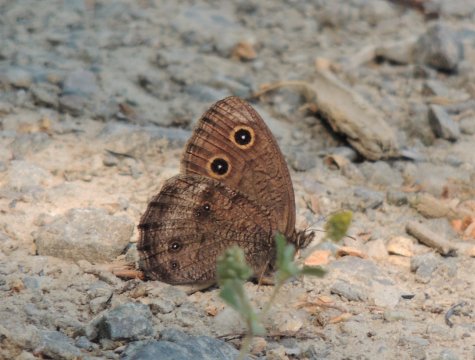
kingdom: Animalia
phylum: Arthropoda
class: Insecta
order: Lepidoptera
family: Nymphalidae
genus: Cercyonis
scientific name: Cercyonis pegala
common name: Common Wood-Nymph
